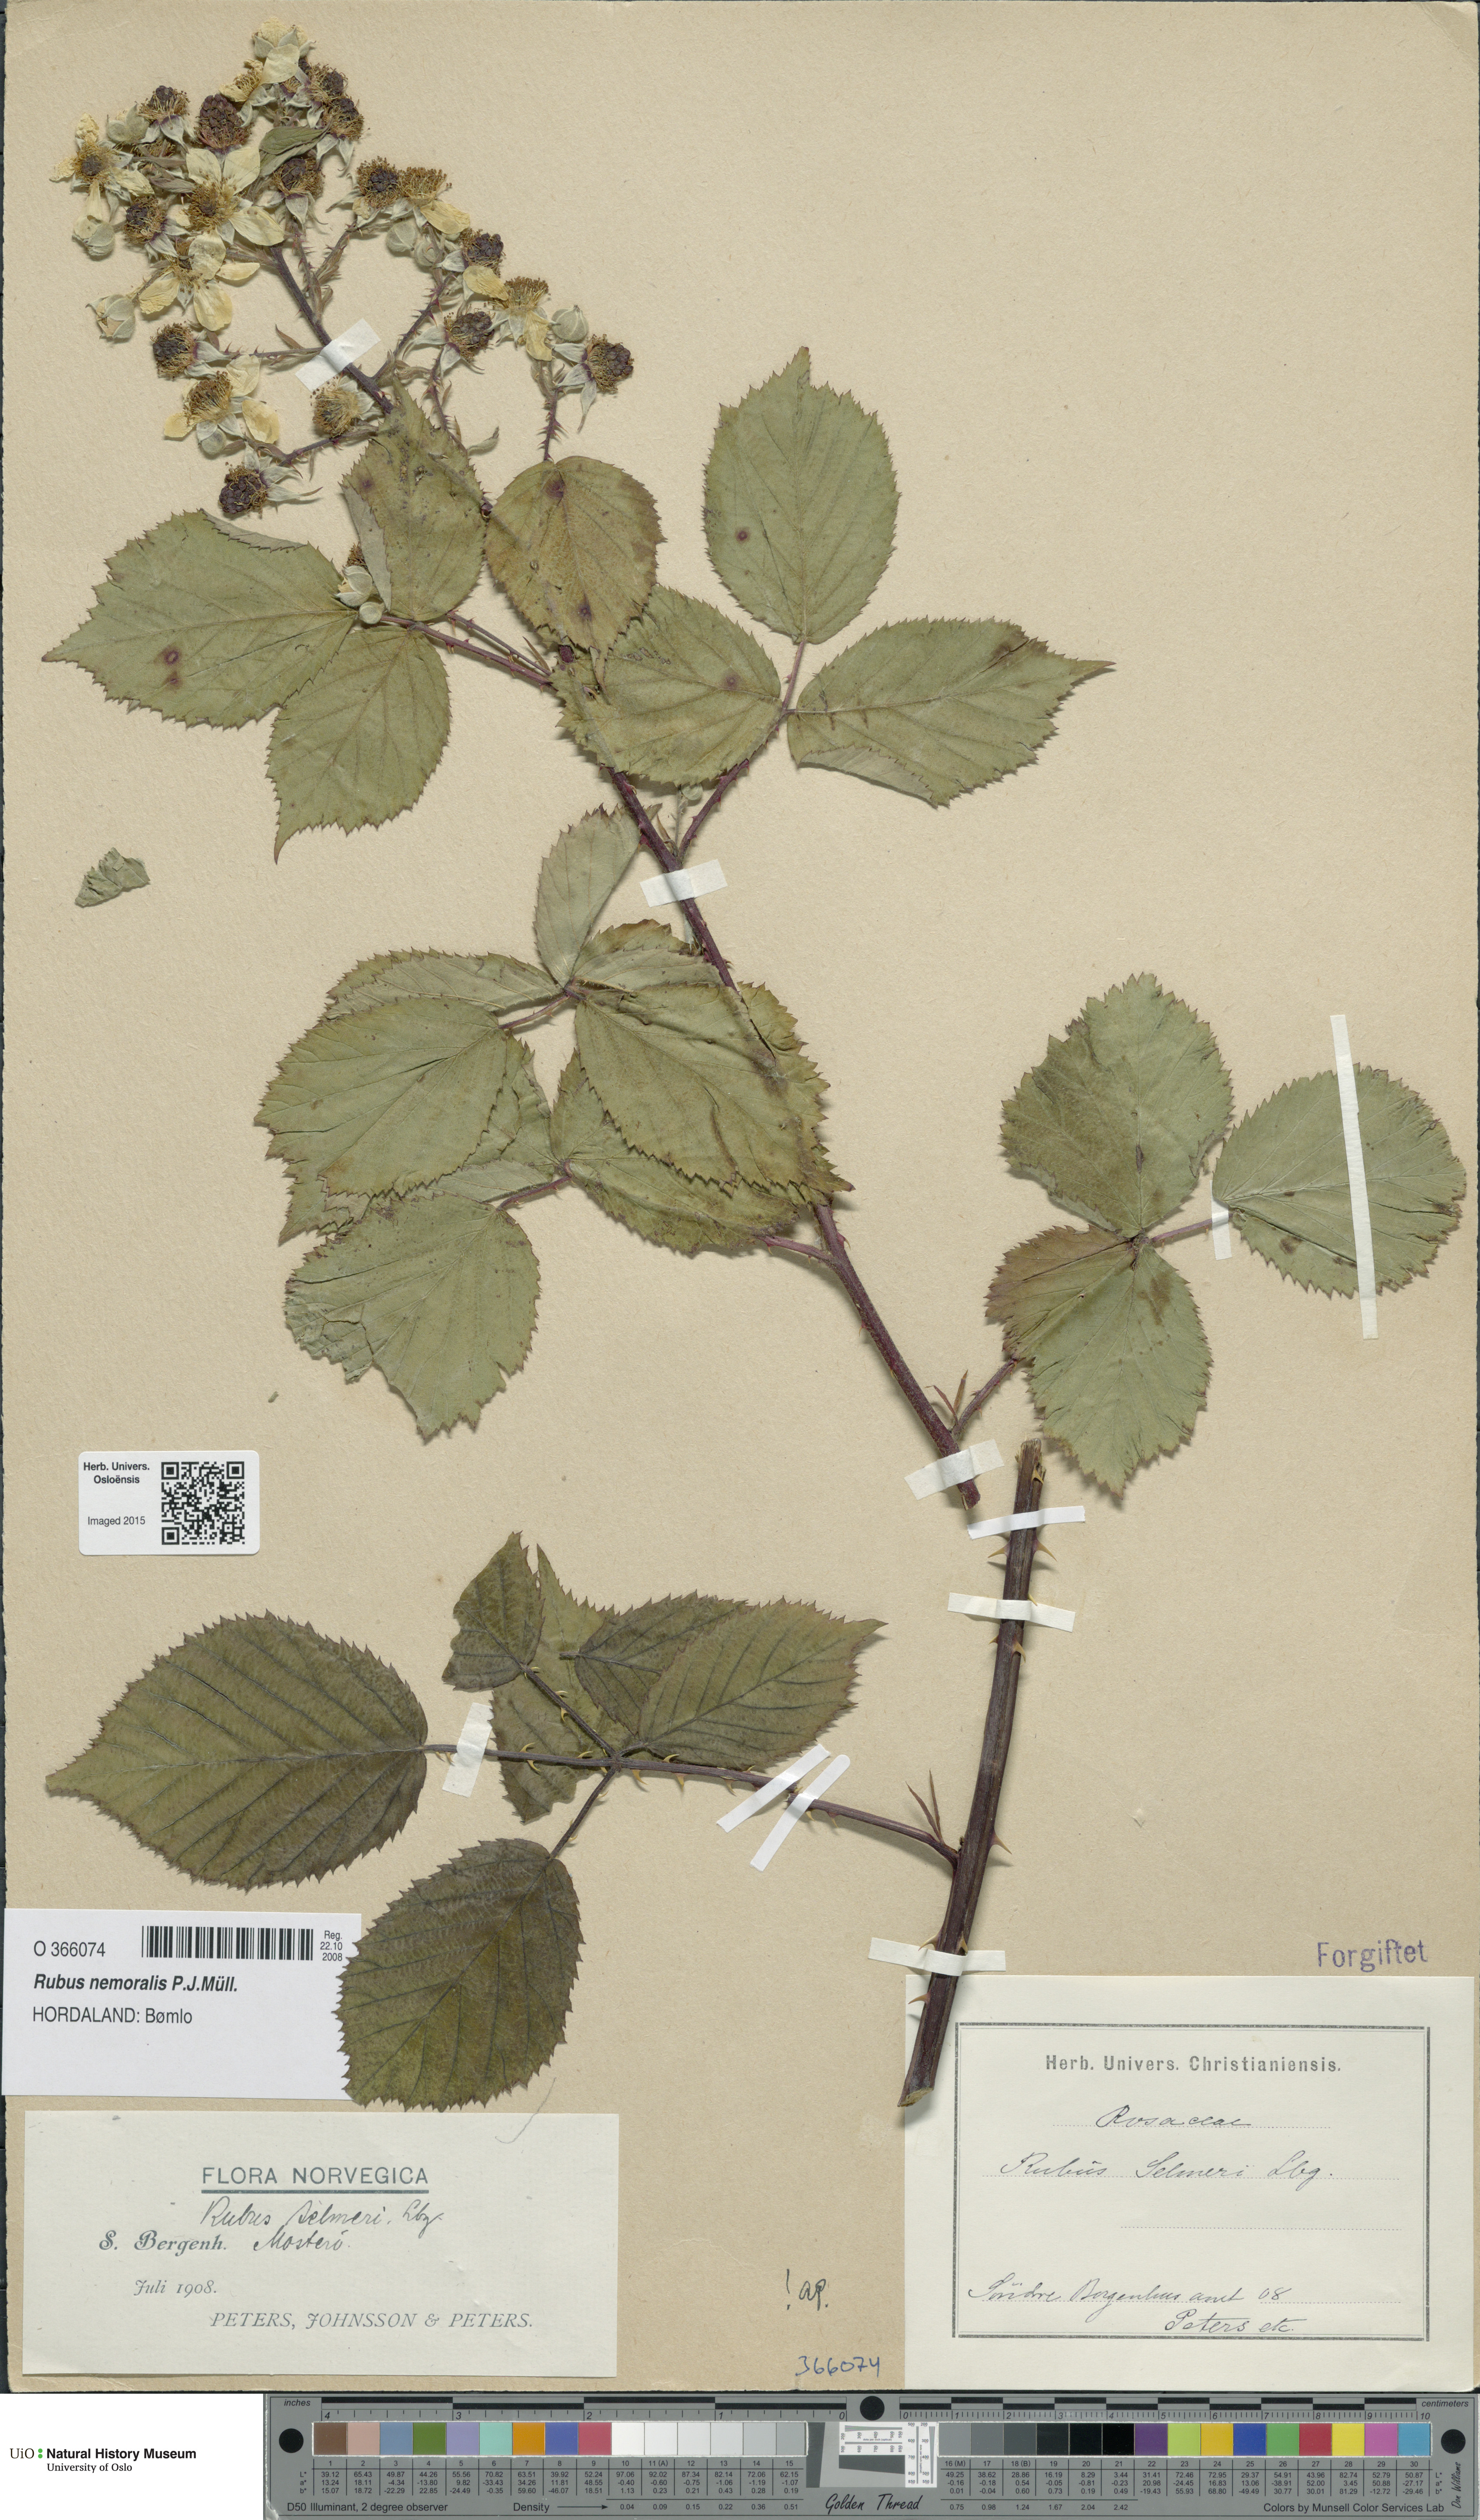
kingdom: Plantae
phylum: Tracheophyta
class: Magnoliopsida
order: Rosales
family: Rosaceae
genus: Rubus
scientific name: Rubus nemoralis
